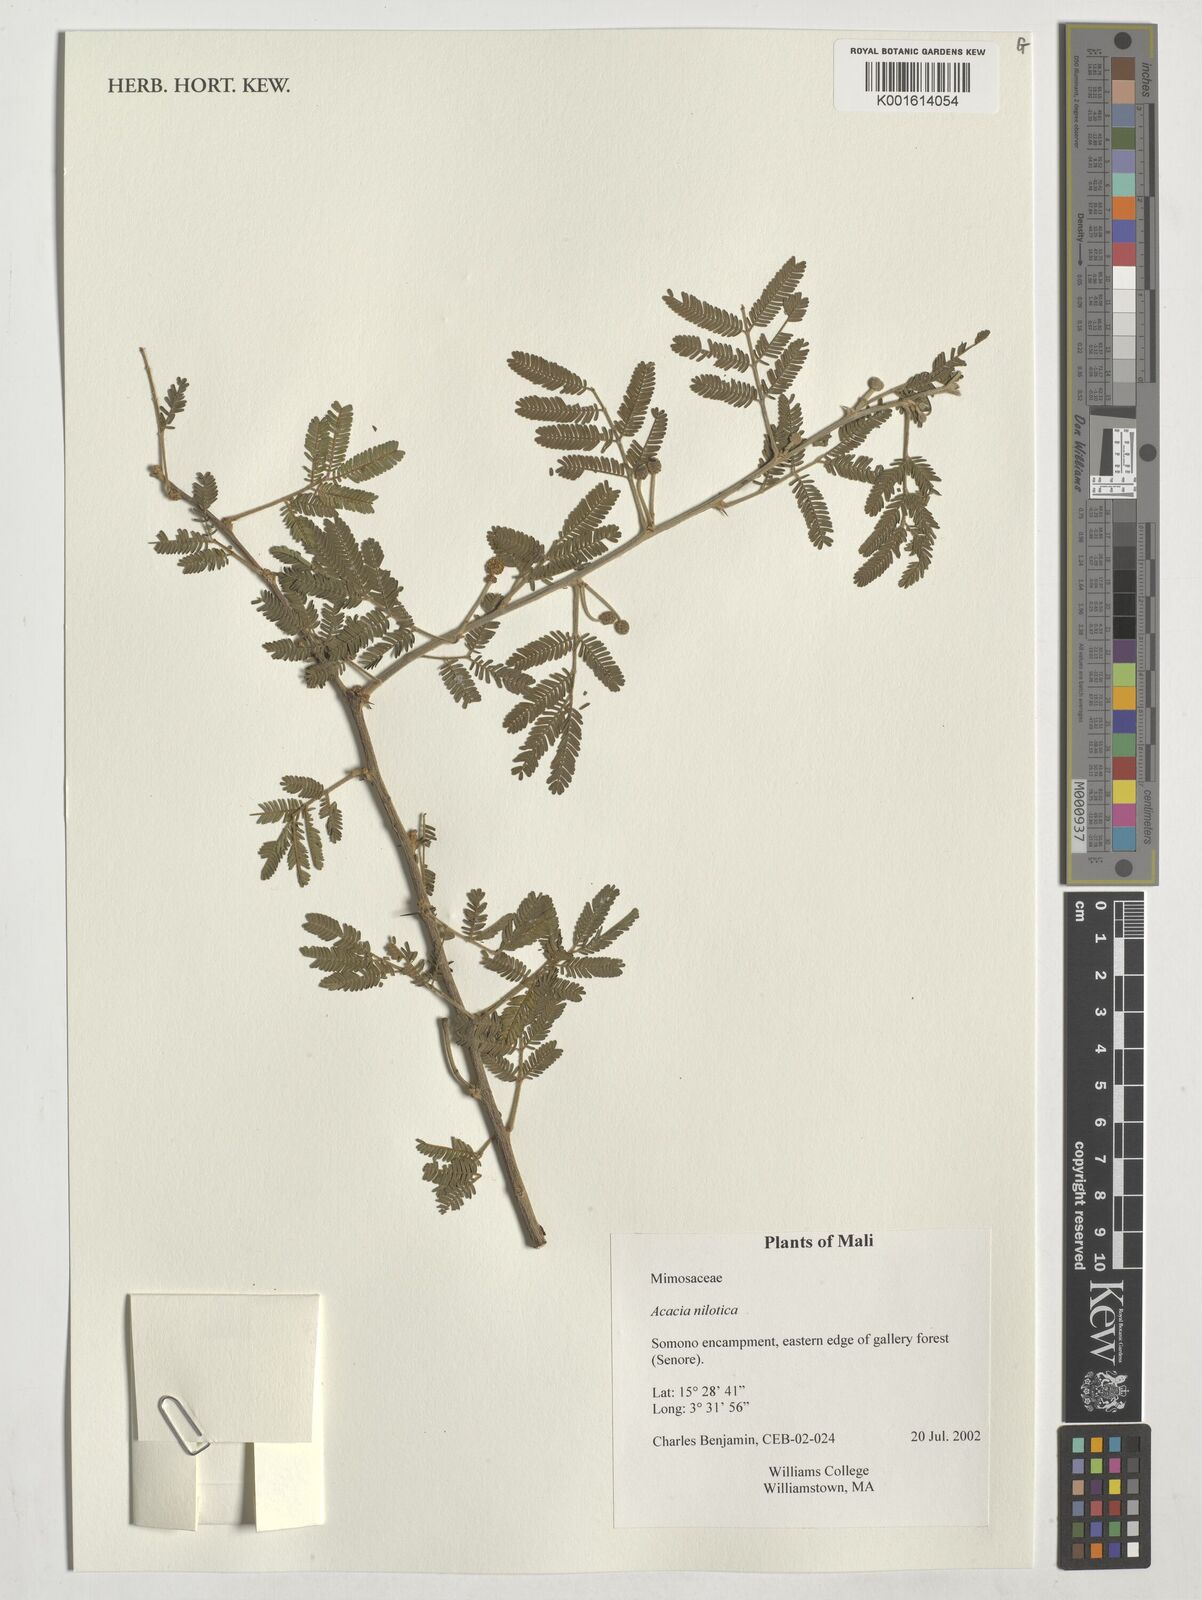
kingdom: Plantae
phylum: Tracheophyta
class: Magnoliopsida
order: Fabales
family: Fabaceae
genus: Vachellia
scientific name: Vachellia nilotica
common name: Arabic gumtree
